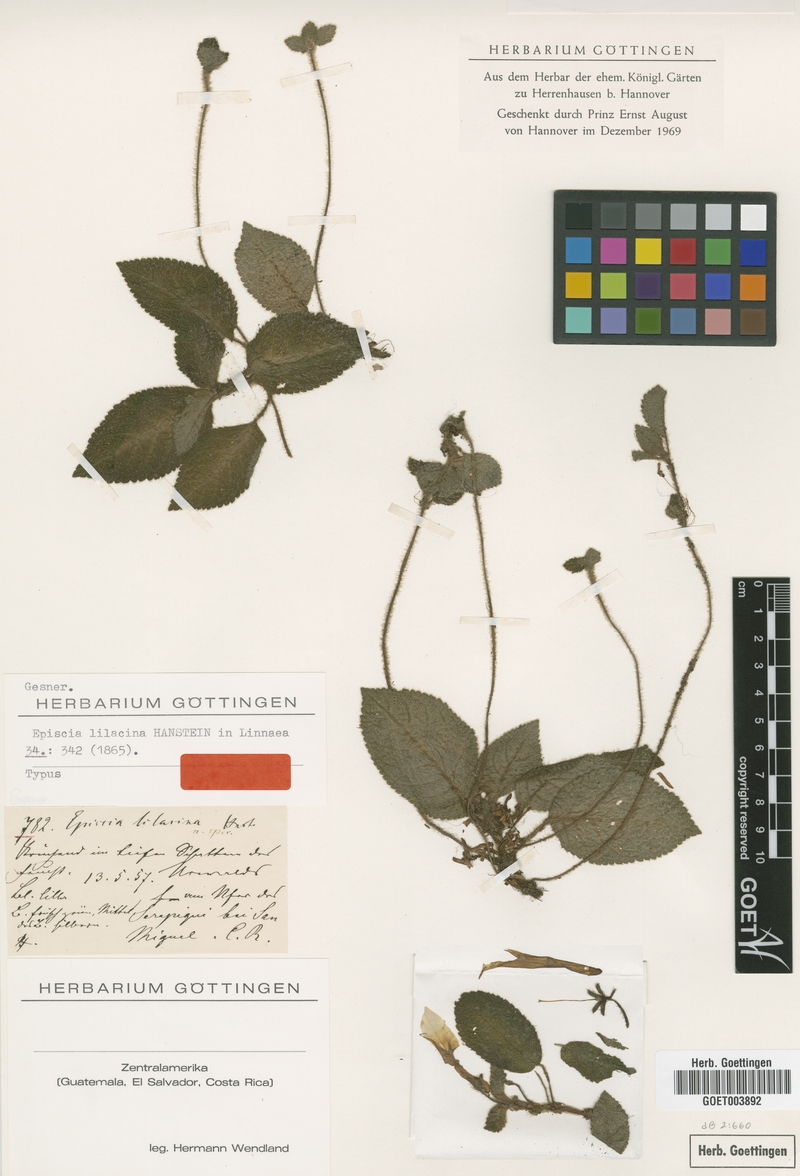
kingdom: Plantae
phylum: Tracheophyta
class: Magnoliopsida
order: Lamiales
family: Gesneriaceae
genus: Episcia
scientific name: Episcia lilacina
